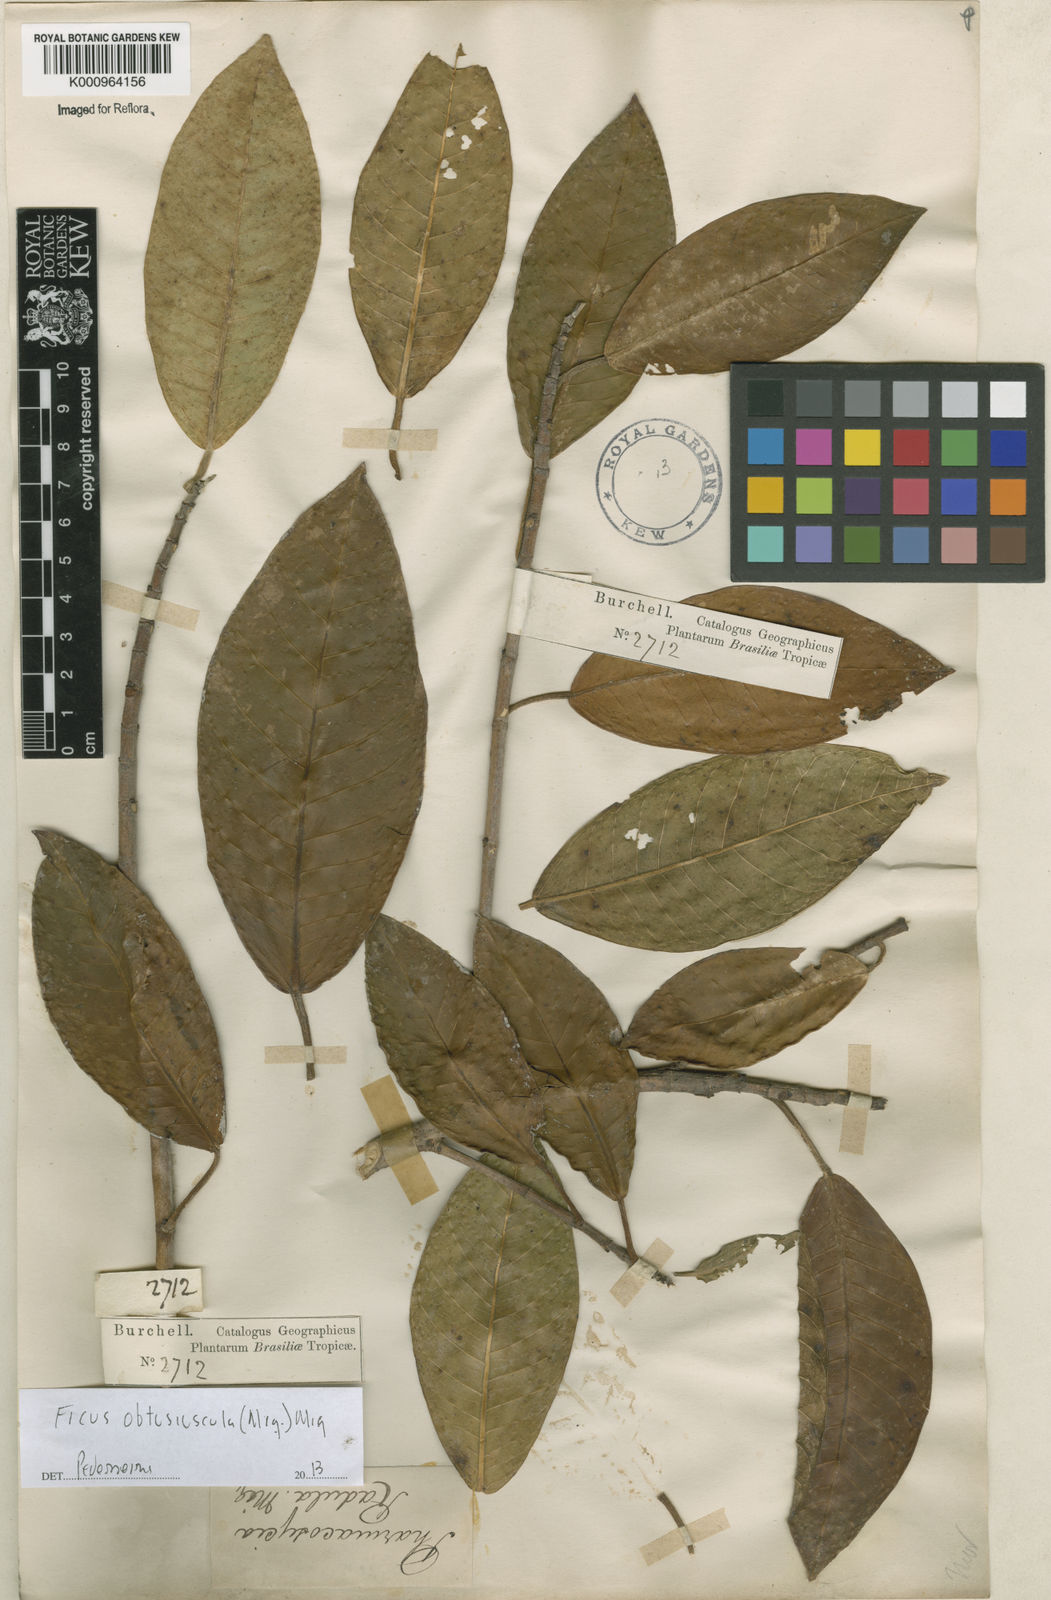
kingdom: Plantae
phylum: Tracheophyta
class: Magnoliopsida
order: Rosales
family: Moraceae
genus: Ficus
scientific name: Ficus obtusiuscula
